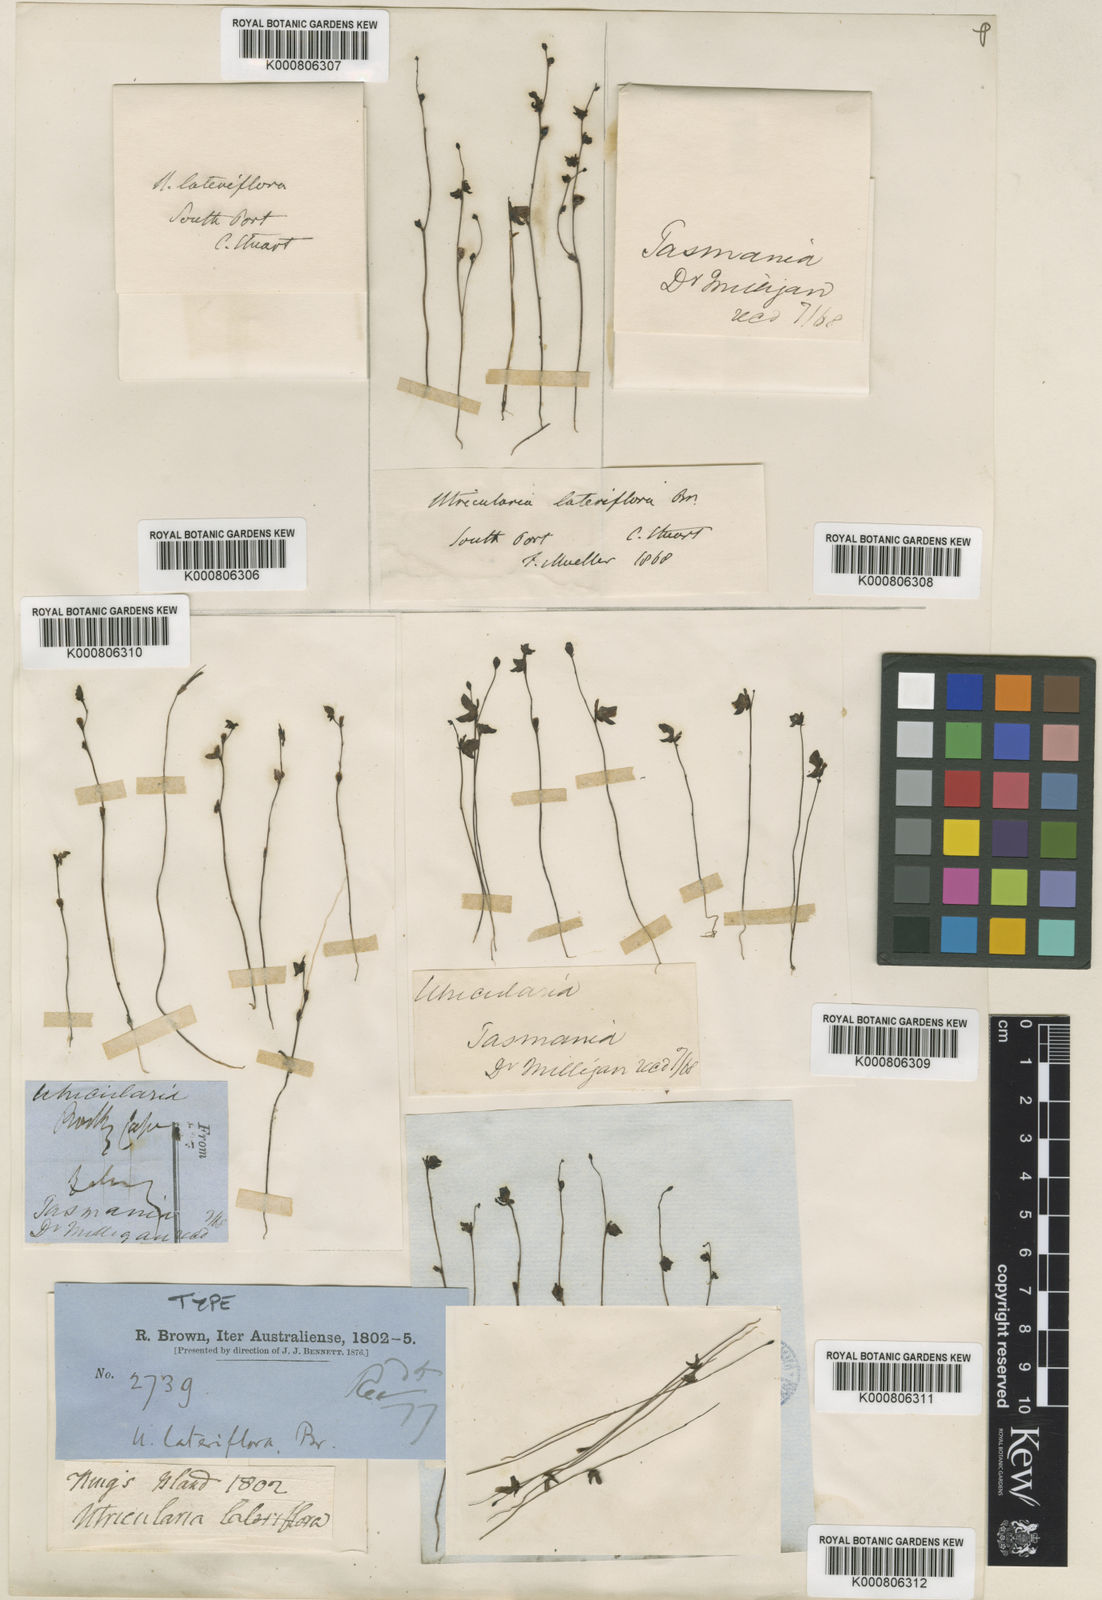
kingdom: Plantae
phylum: Tracheophyta
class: Magnoliopsida
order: Lamiales
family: Lentibulariaceae
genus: Utricularia
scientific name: Utricularia lateriflora
